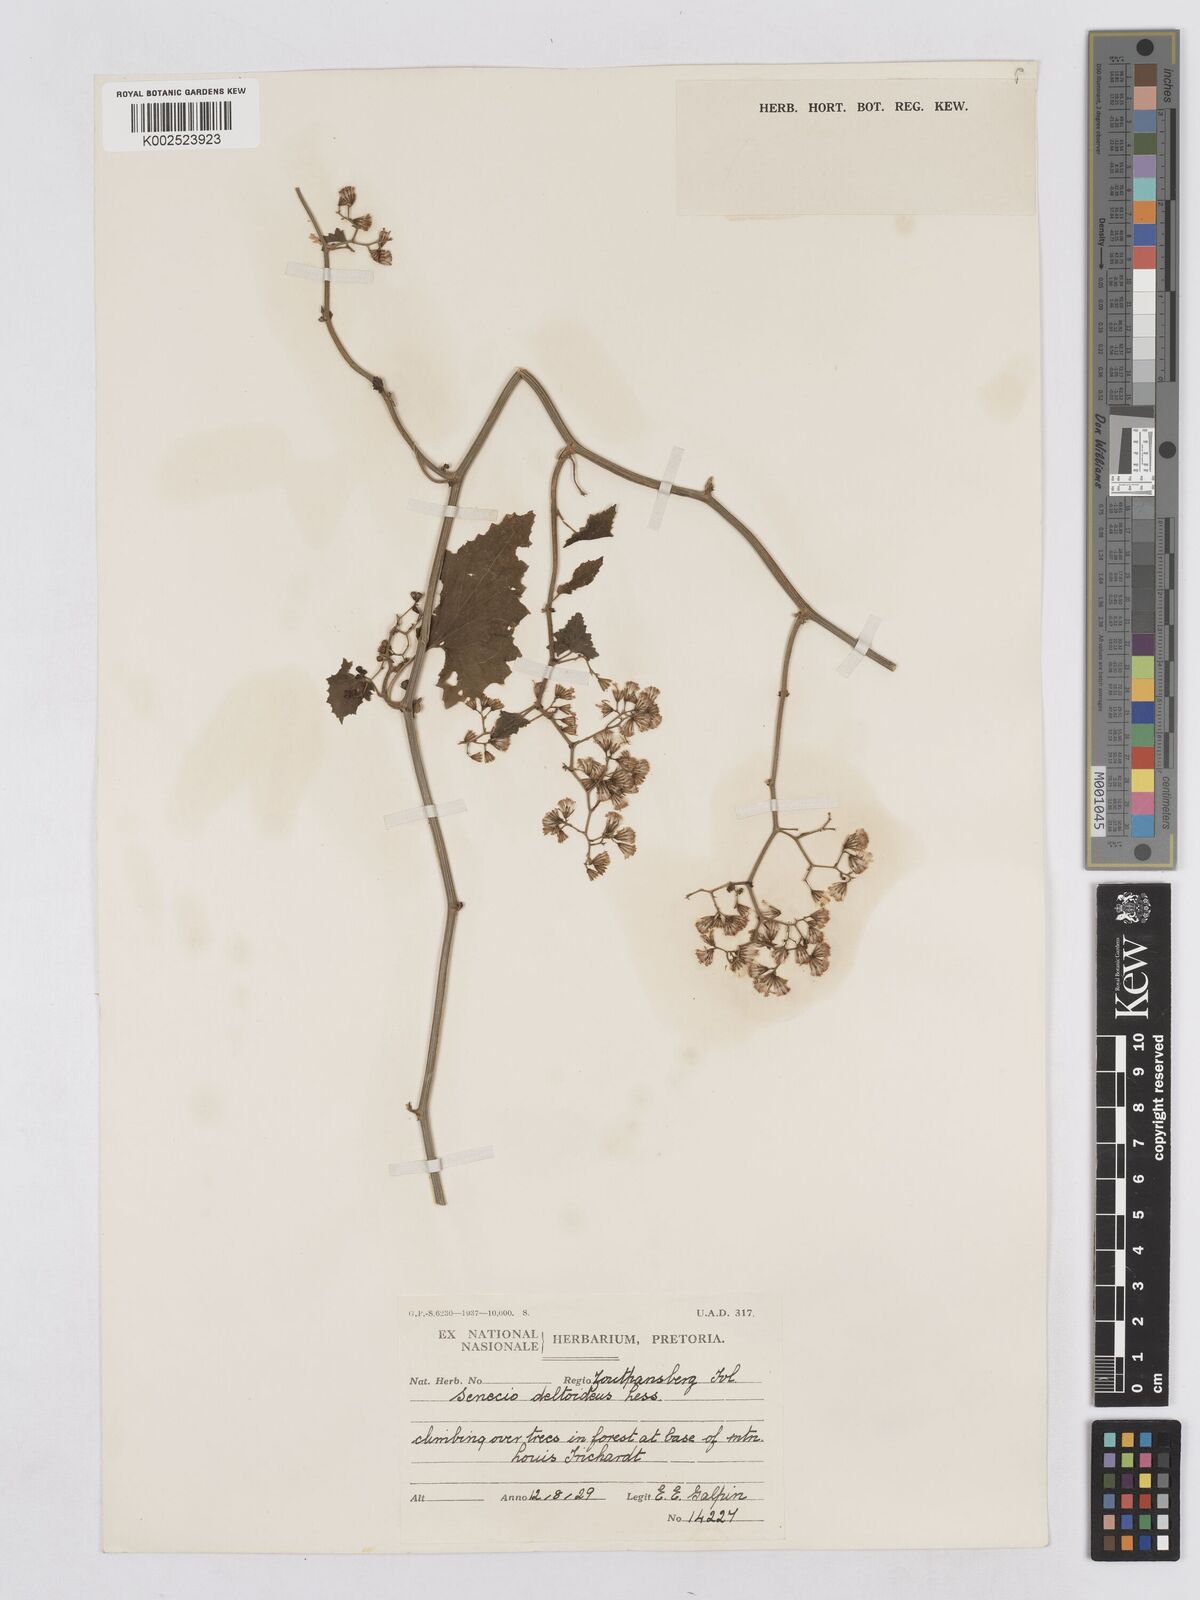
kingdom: Plantae
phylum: Tracheophyta
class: Magnoliopsida
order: Asterales
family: Asteraceae
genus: Senecio
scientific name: Senecio deltoideus
